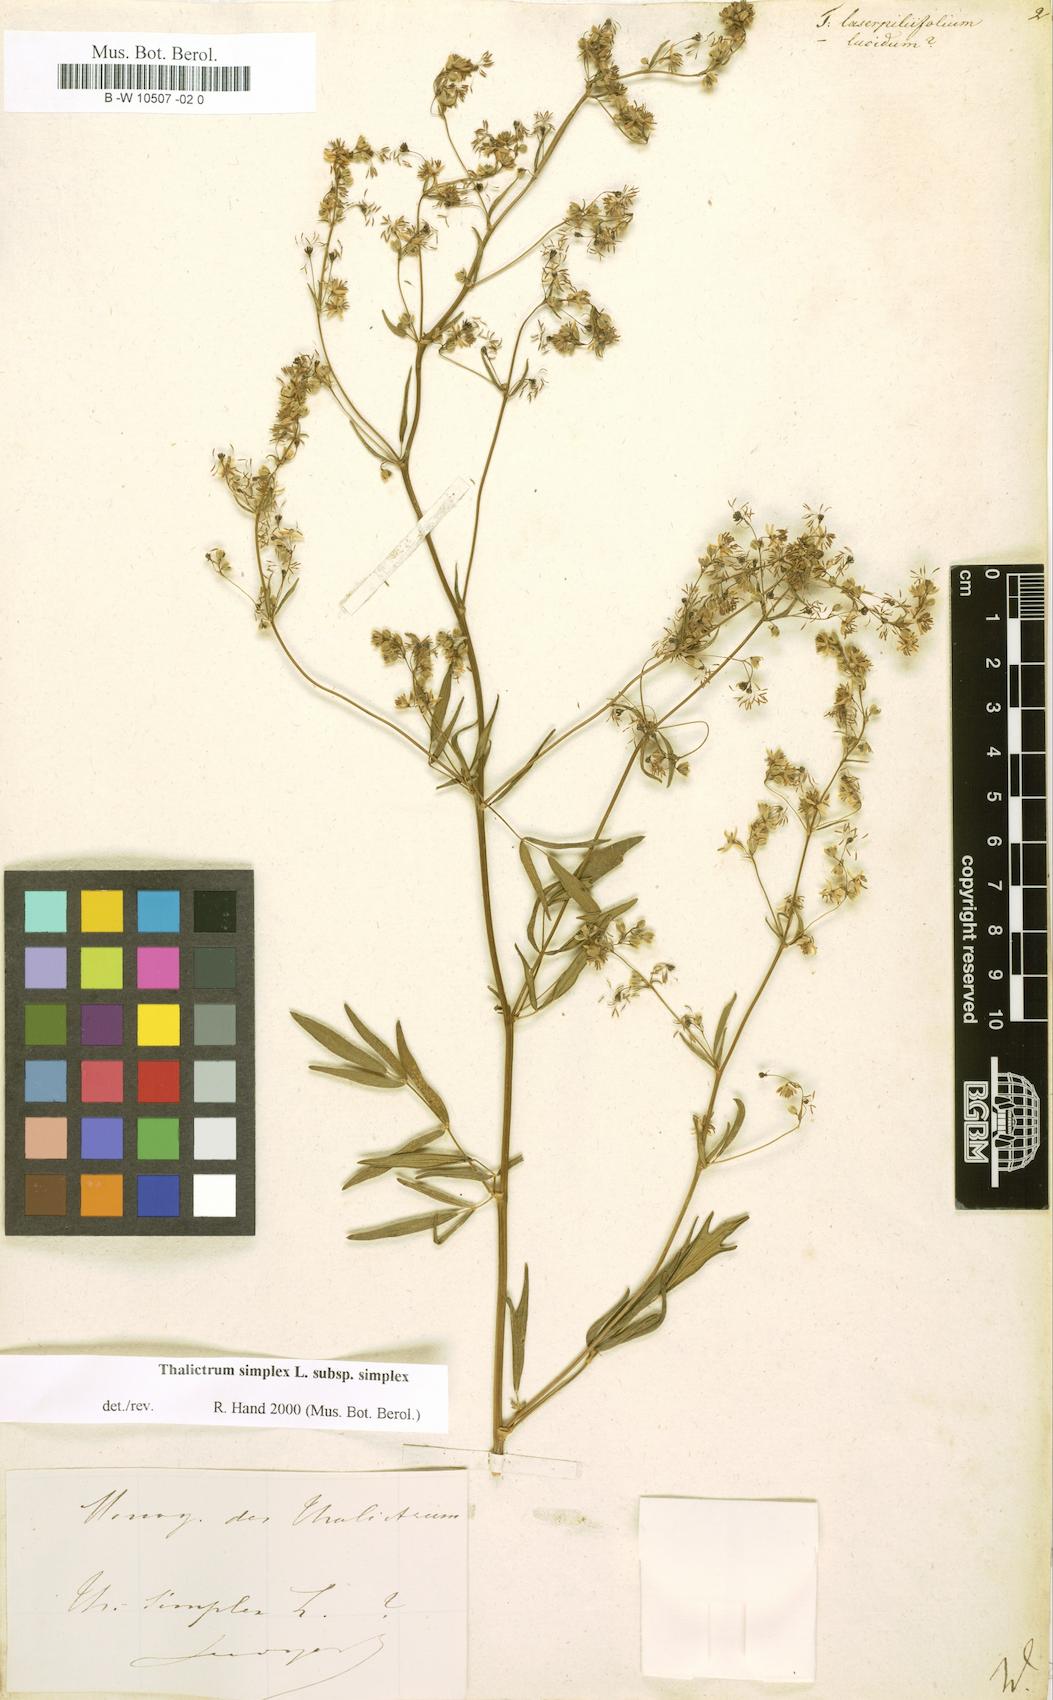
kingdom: Plantae
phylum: Tracheophyta
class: Magnoliopsida
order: Ranunculales
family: Ranunculaceae
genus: Thalictrum
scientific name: Thalictrum simplex
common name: Small meadow-rue
